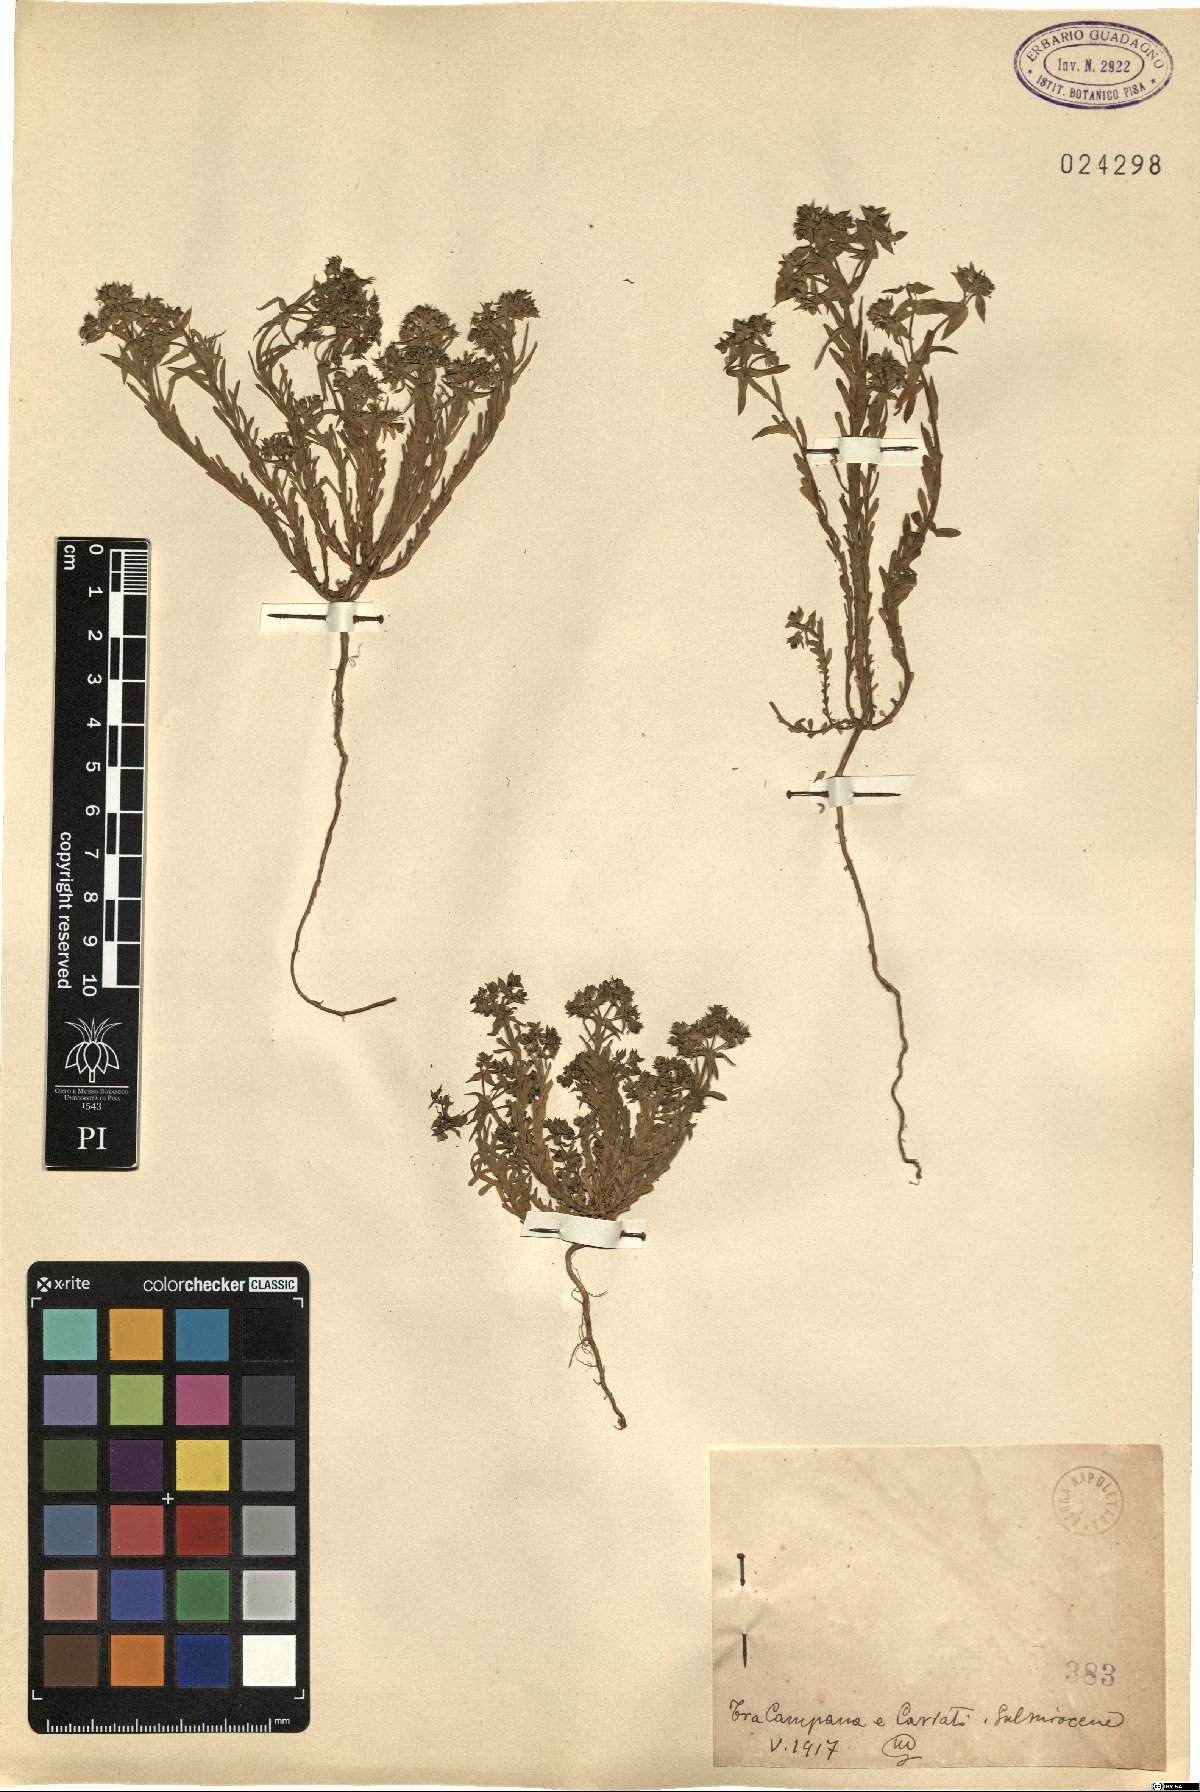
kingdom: Plantae
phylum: Tracheophyta
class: Magnoliopsida
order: Malpighiales
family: Euphorbiaceae
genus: Euphorbia
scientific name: Euphorbia
